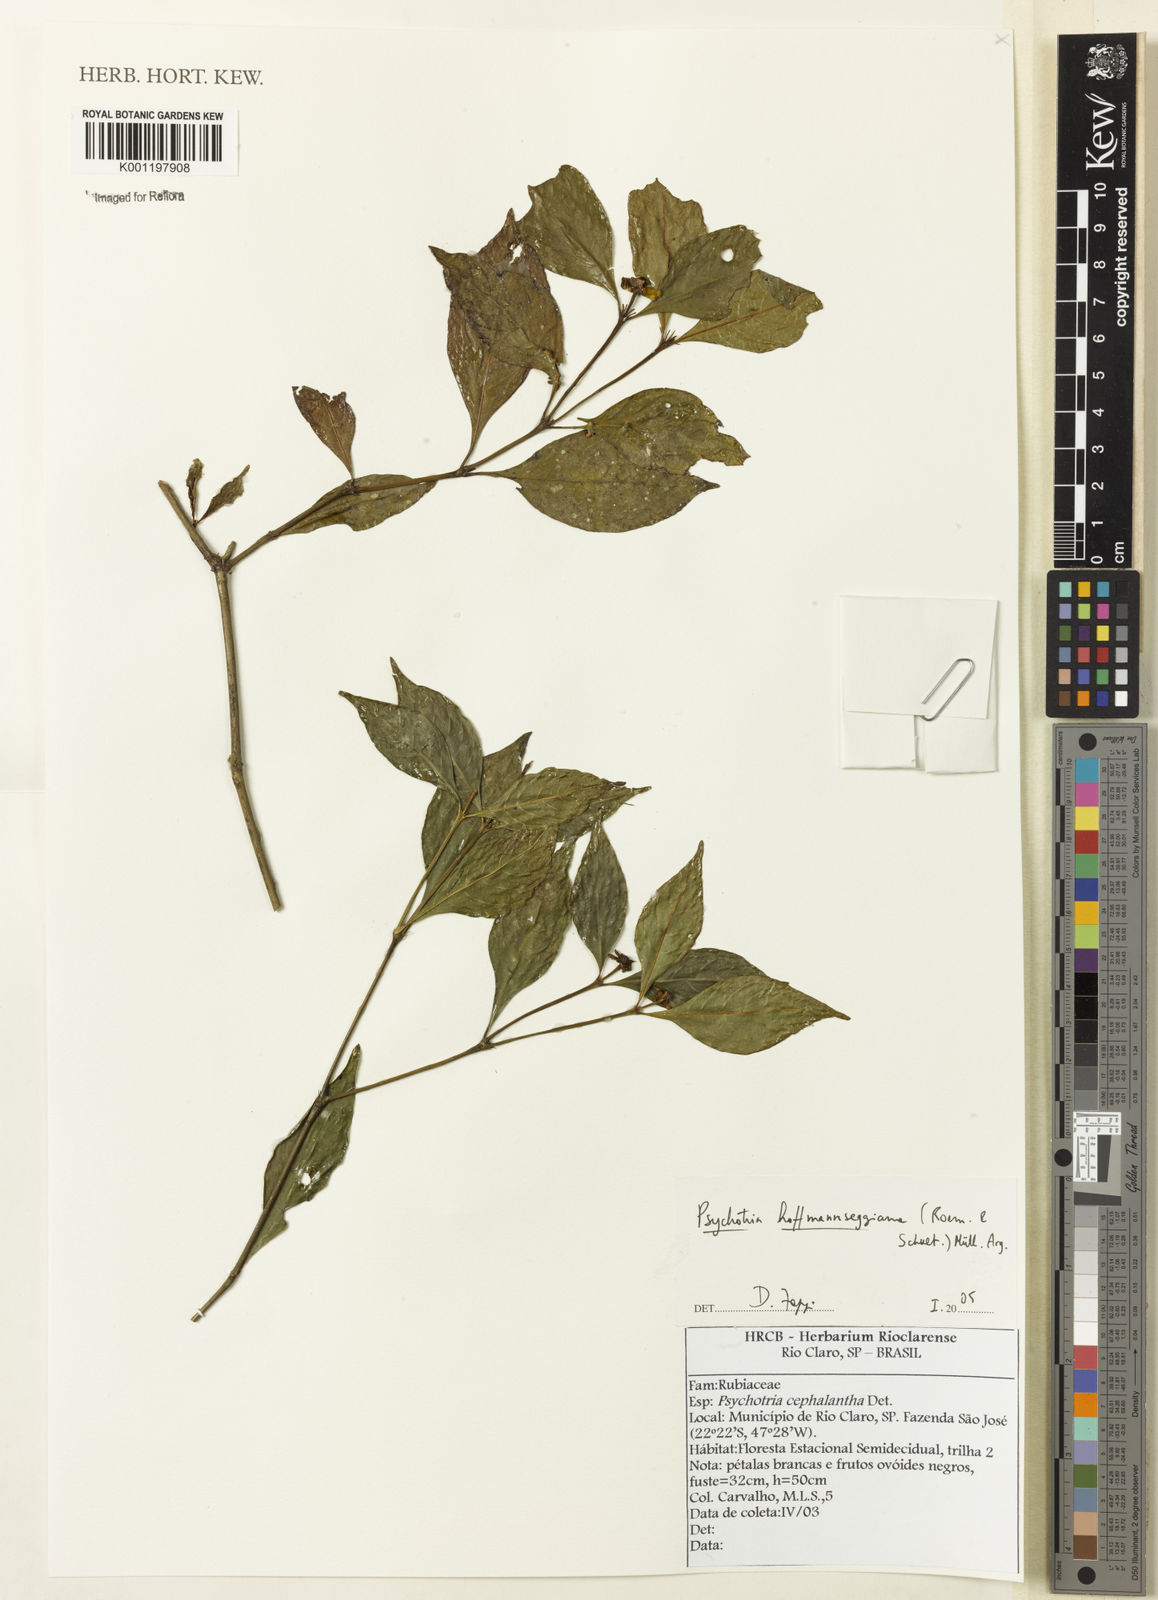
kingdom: Plantae
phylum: Tracheophyta
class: Magnoliopsida
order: Gentianales
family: Rubiaceae
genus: Psychotria
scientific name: Psychotria
